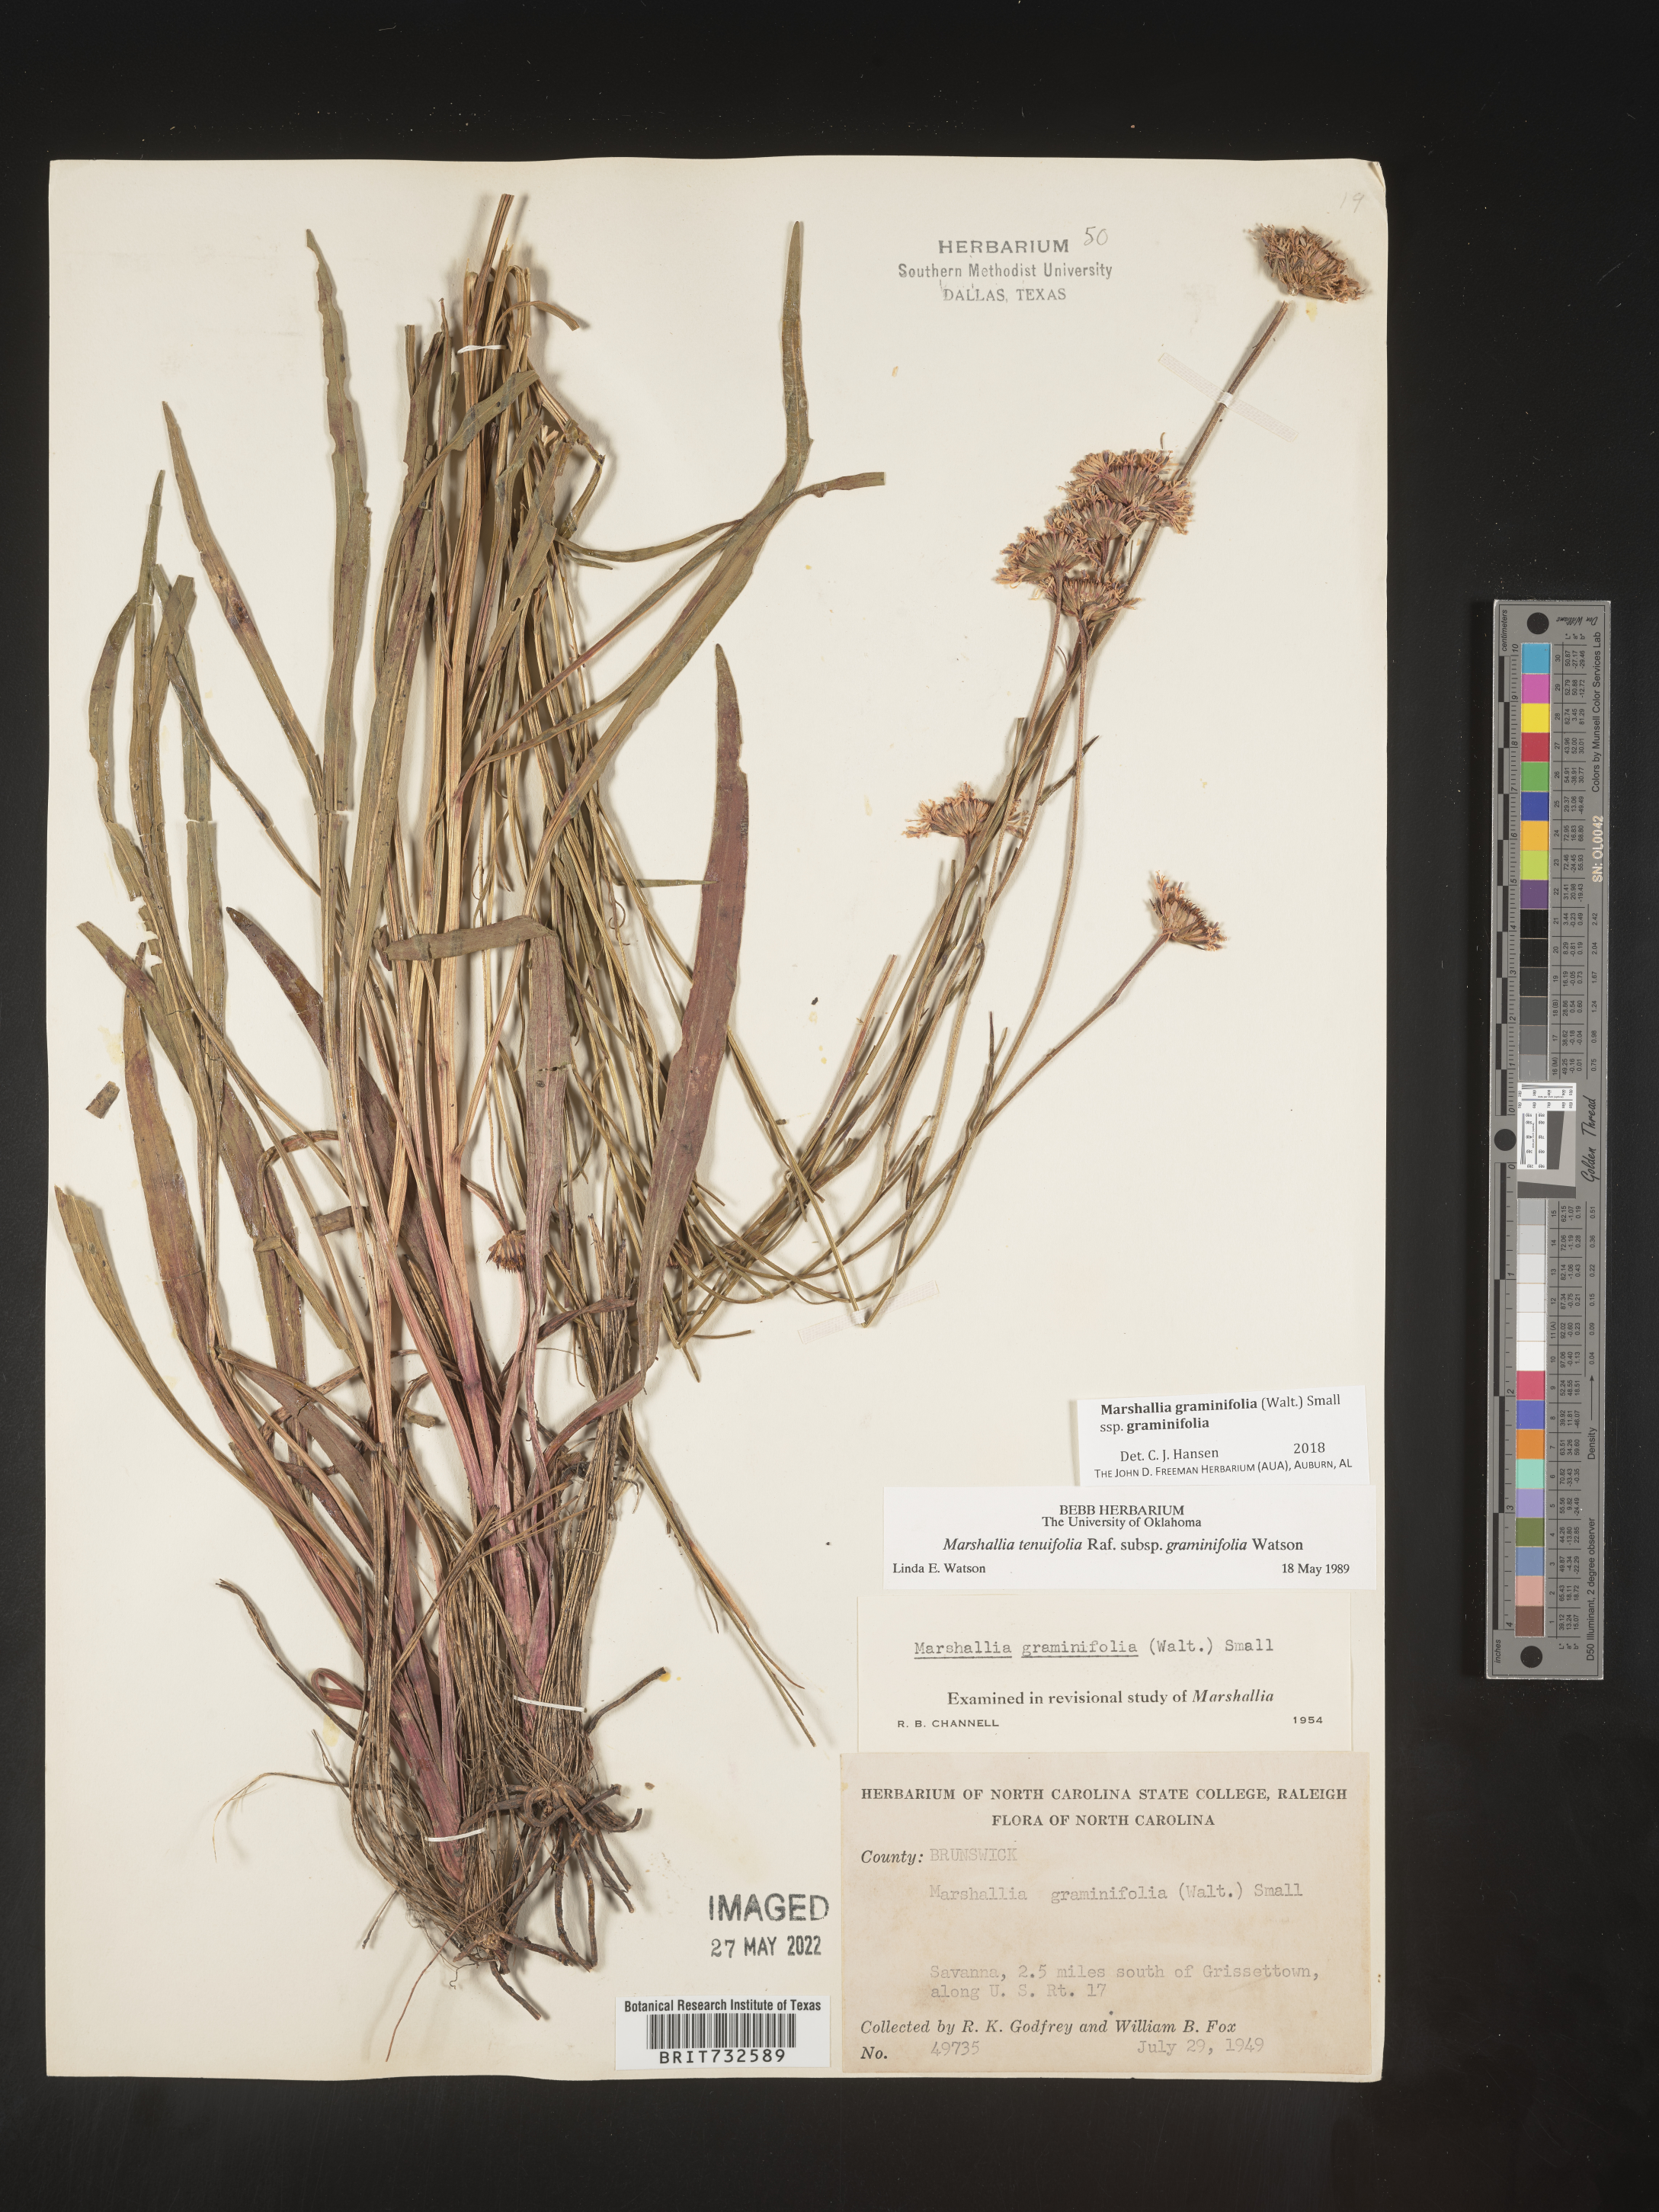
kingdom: Plantae
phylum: Tracheophyta
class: Magnoliopsida
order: Asterales
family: Asteraceae
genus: Marshallia
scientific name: Marshallia graminifolia
